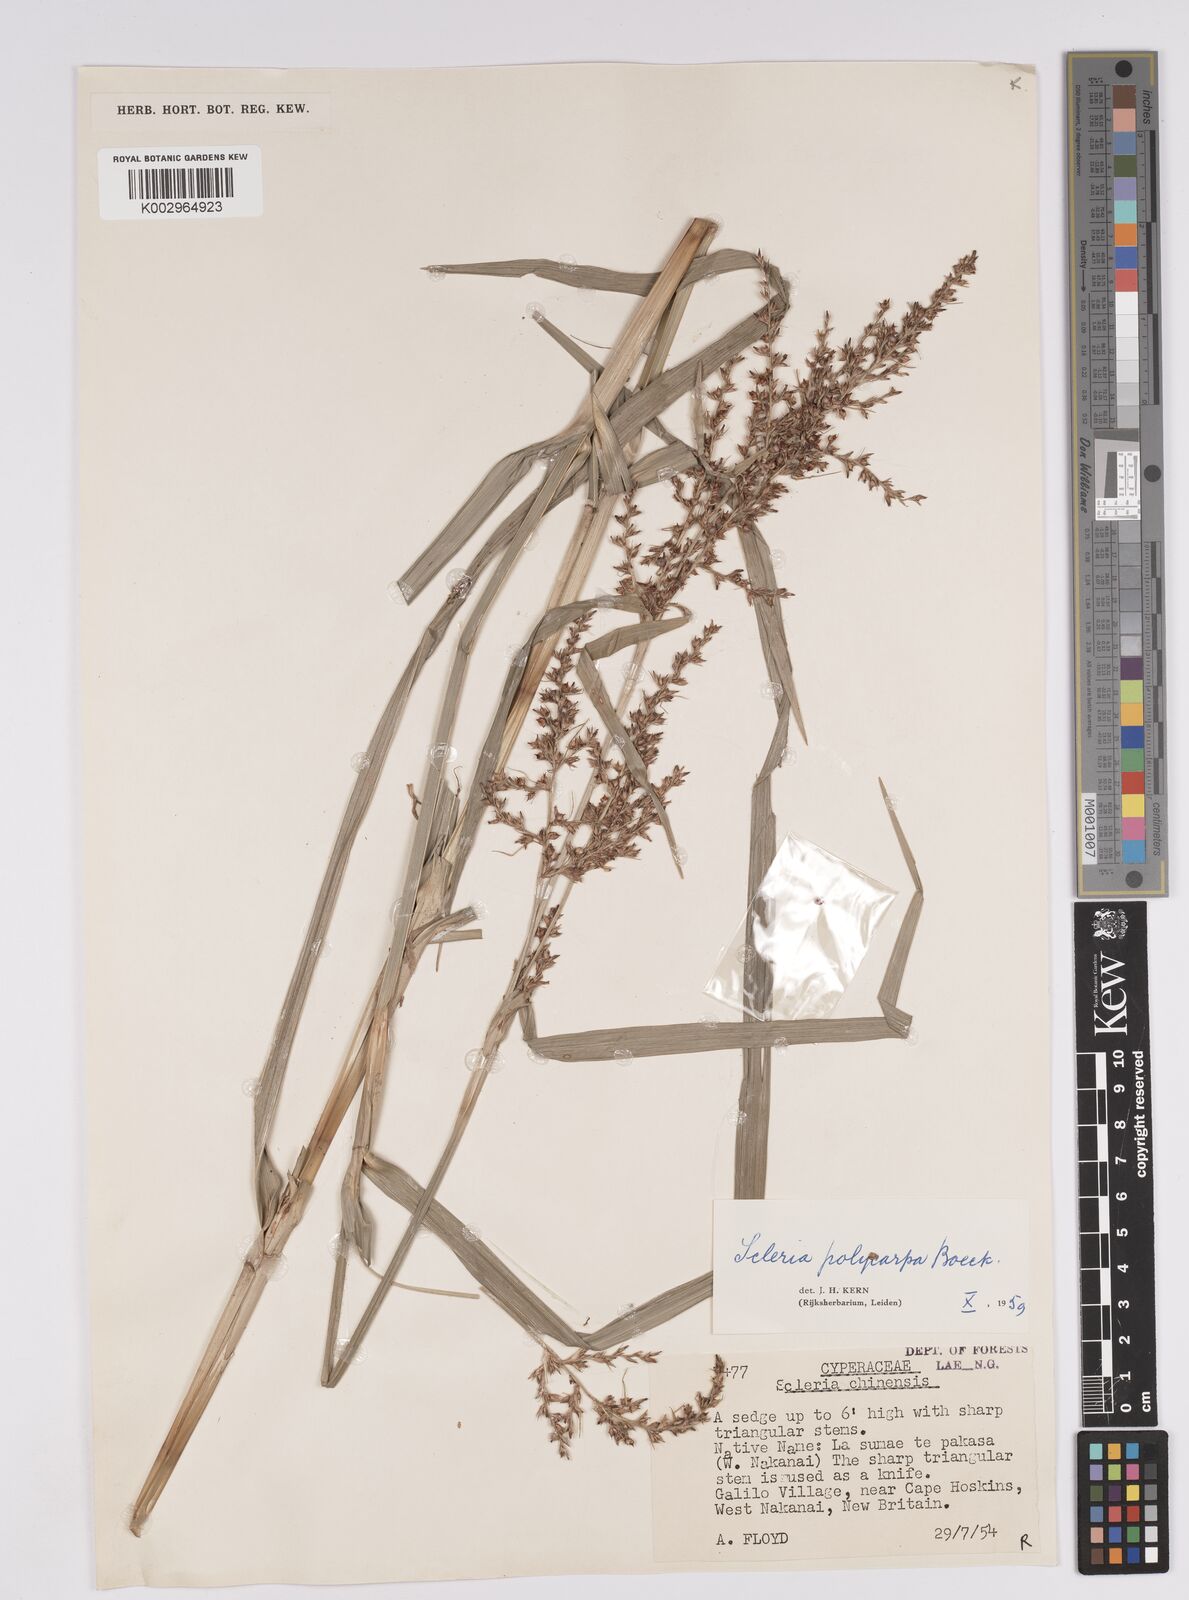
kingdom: Plantae
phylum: Tracheophyta
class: Liliopsida
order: Poales
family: Cyperaceae
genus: Scleria
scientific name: Scleria polycarpa
